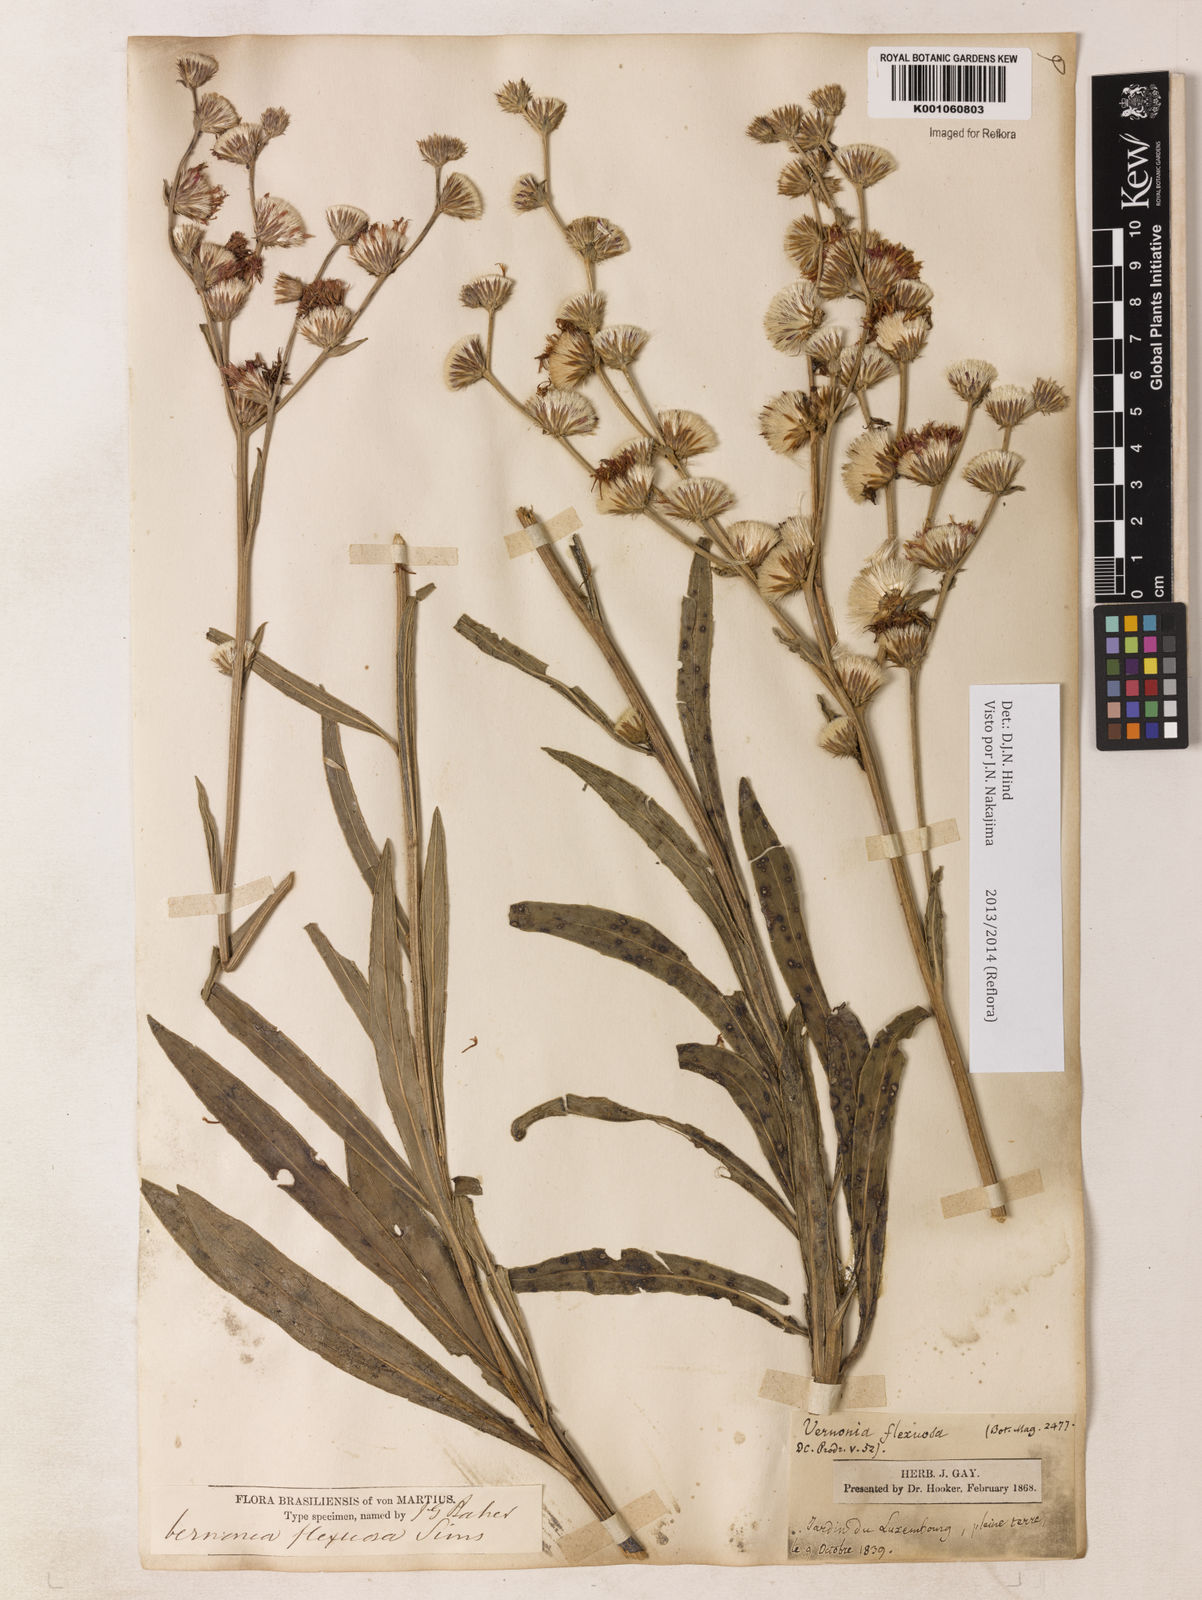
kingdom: Plantae
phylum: Tracheophyta
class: Magnoliopsida
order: Asterales
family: Asteraceae
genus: Chrysolaena
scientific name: Chrysolaena flexuosa
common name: Zig-zag vernonia
